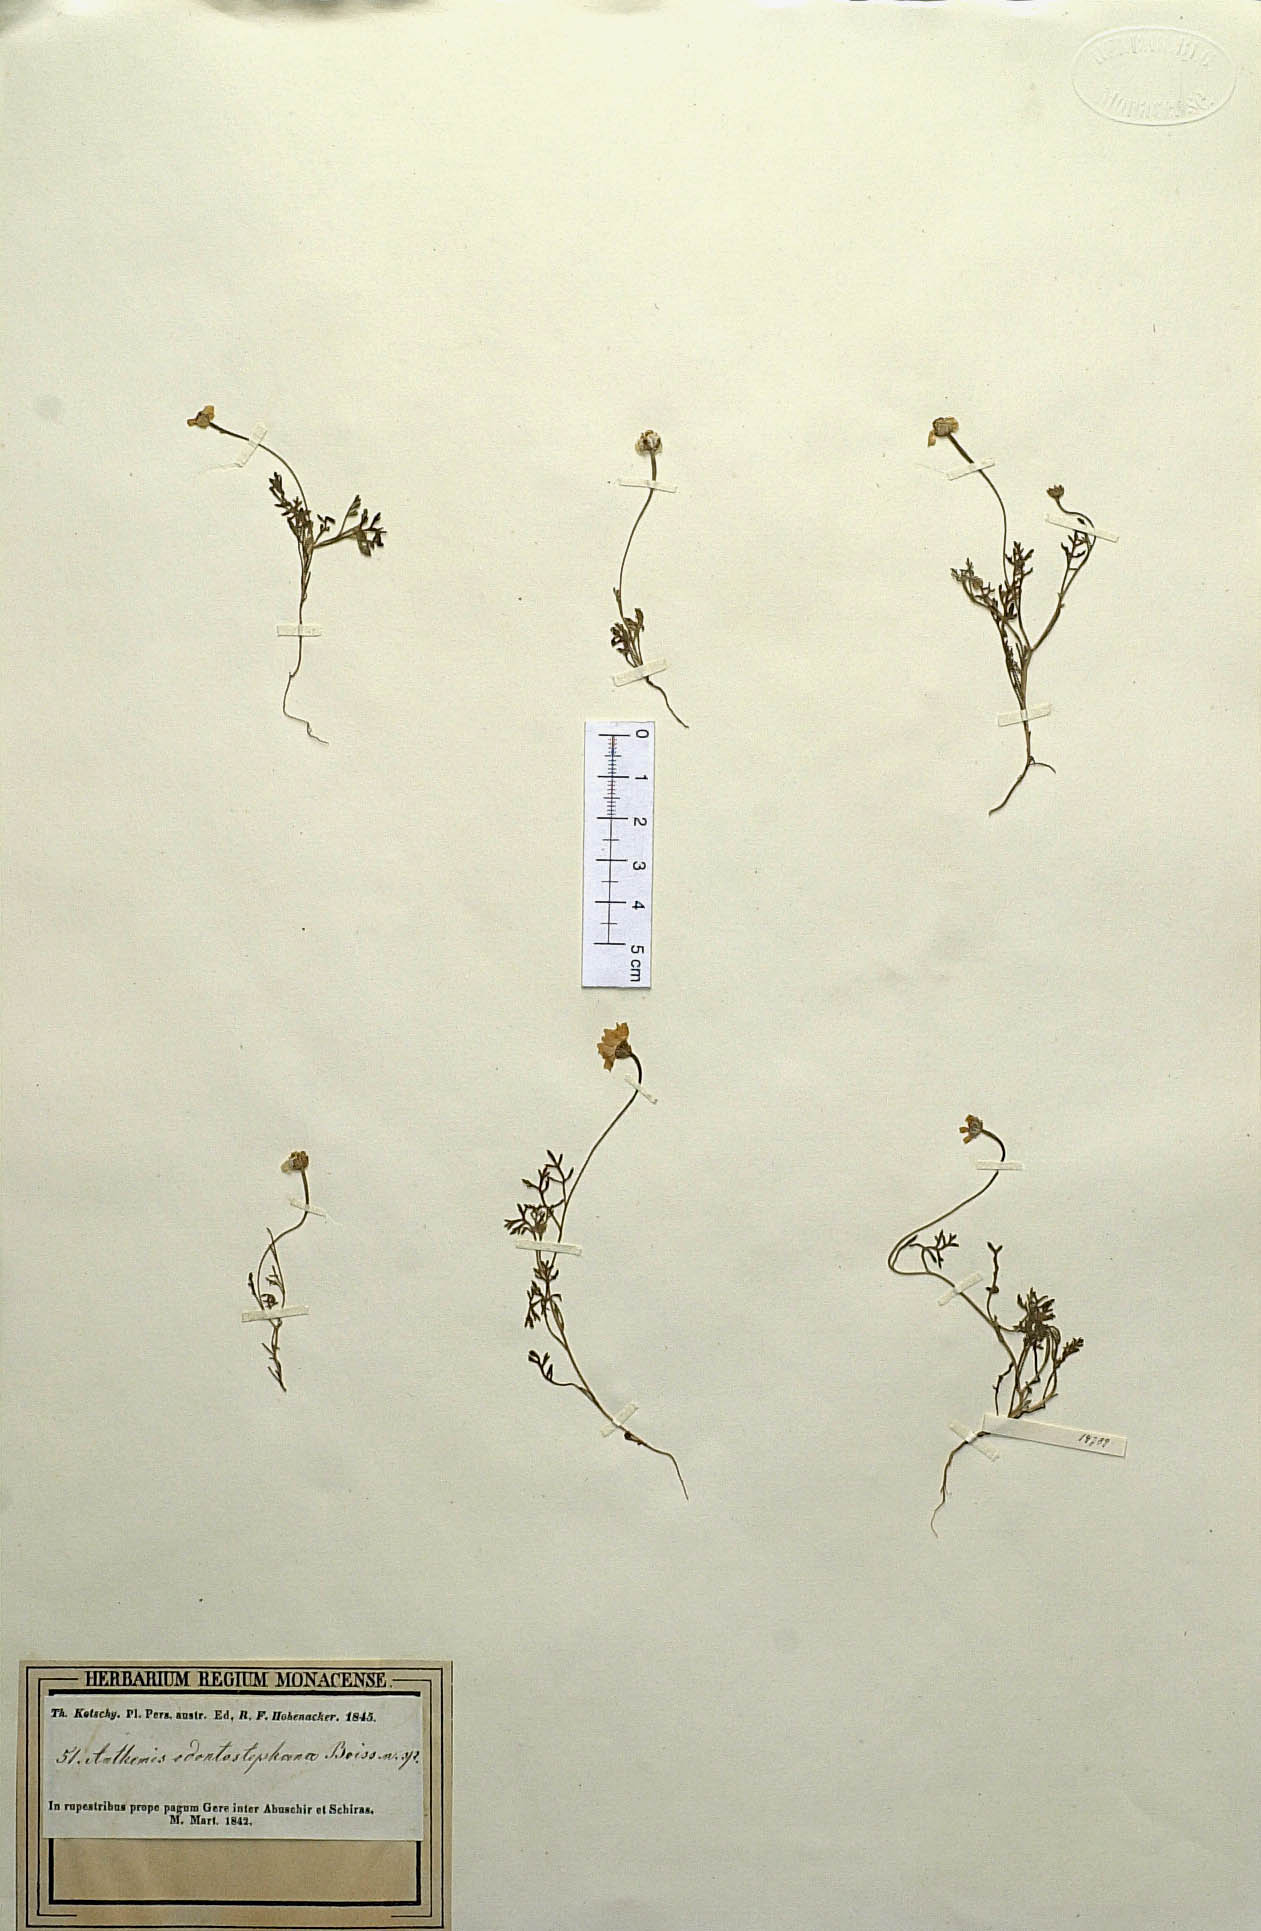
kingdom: Plantae
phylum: Tracheophyta
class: Magnoliopsida
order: Asterales
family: Asteraceae
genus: Anthemis
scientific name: Anthemis odontostephana
